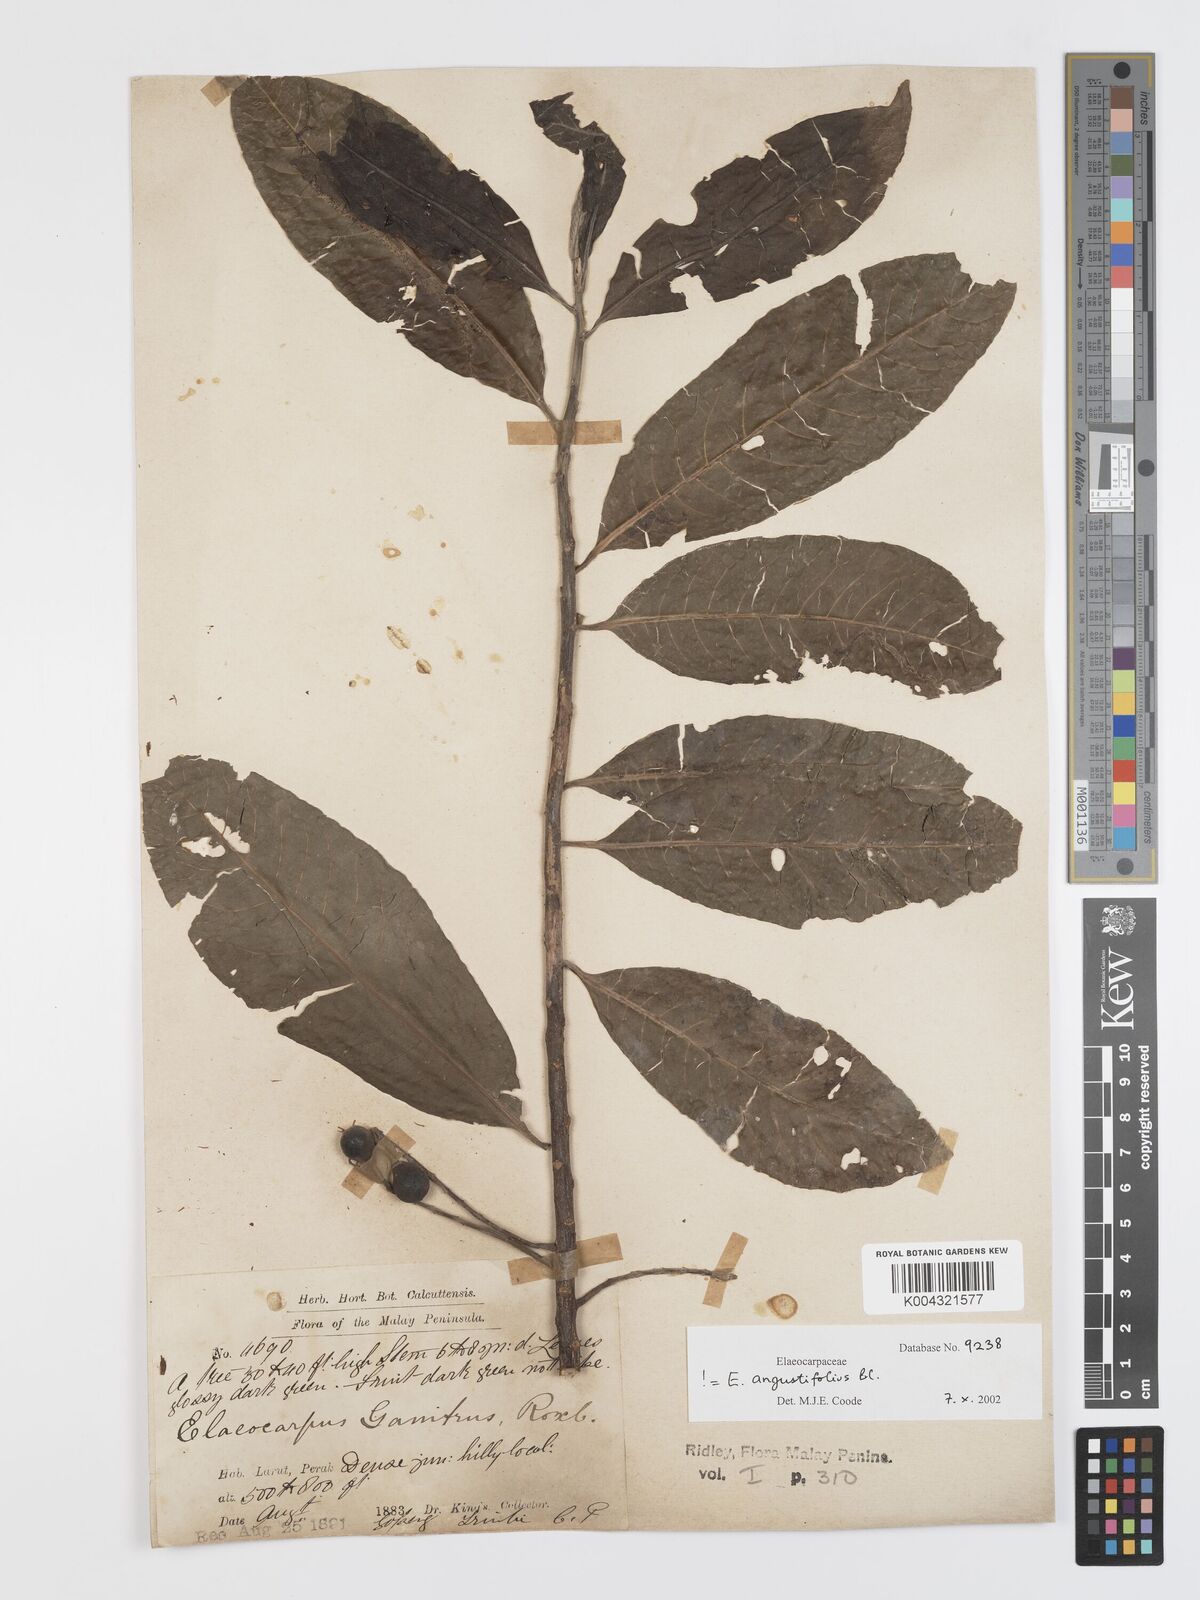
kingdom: Plantae
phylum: Tracheophyta
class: Magnoliopsida
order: Oxalidales
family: Elaeocarpaceae
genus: Elaeocarpus
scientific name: Elaeocarpus sphaericus
